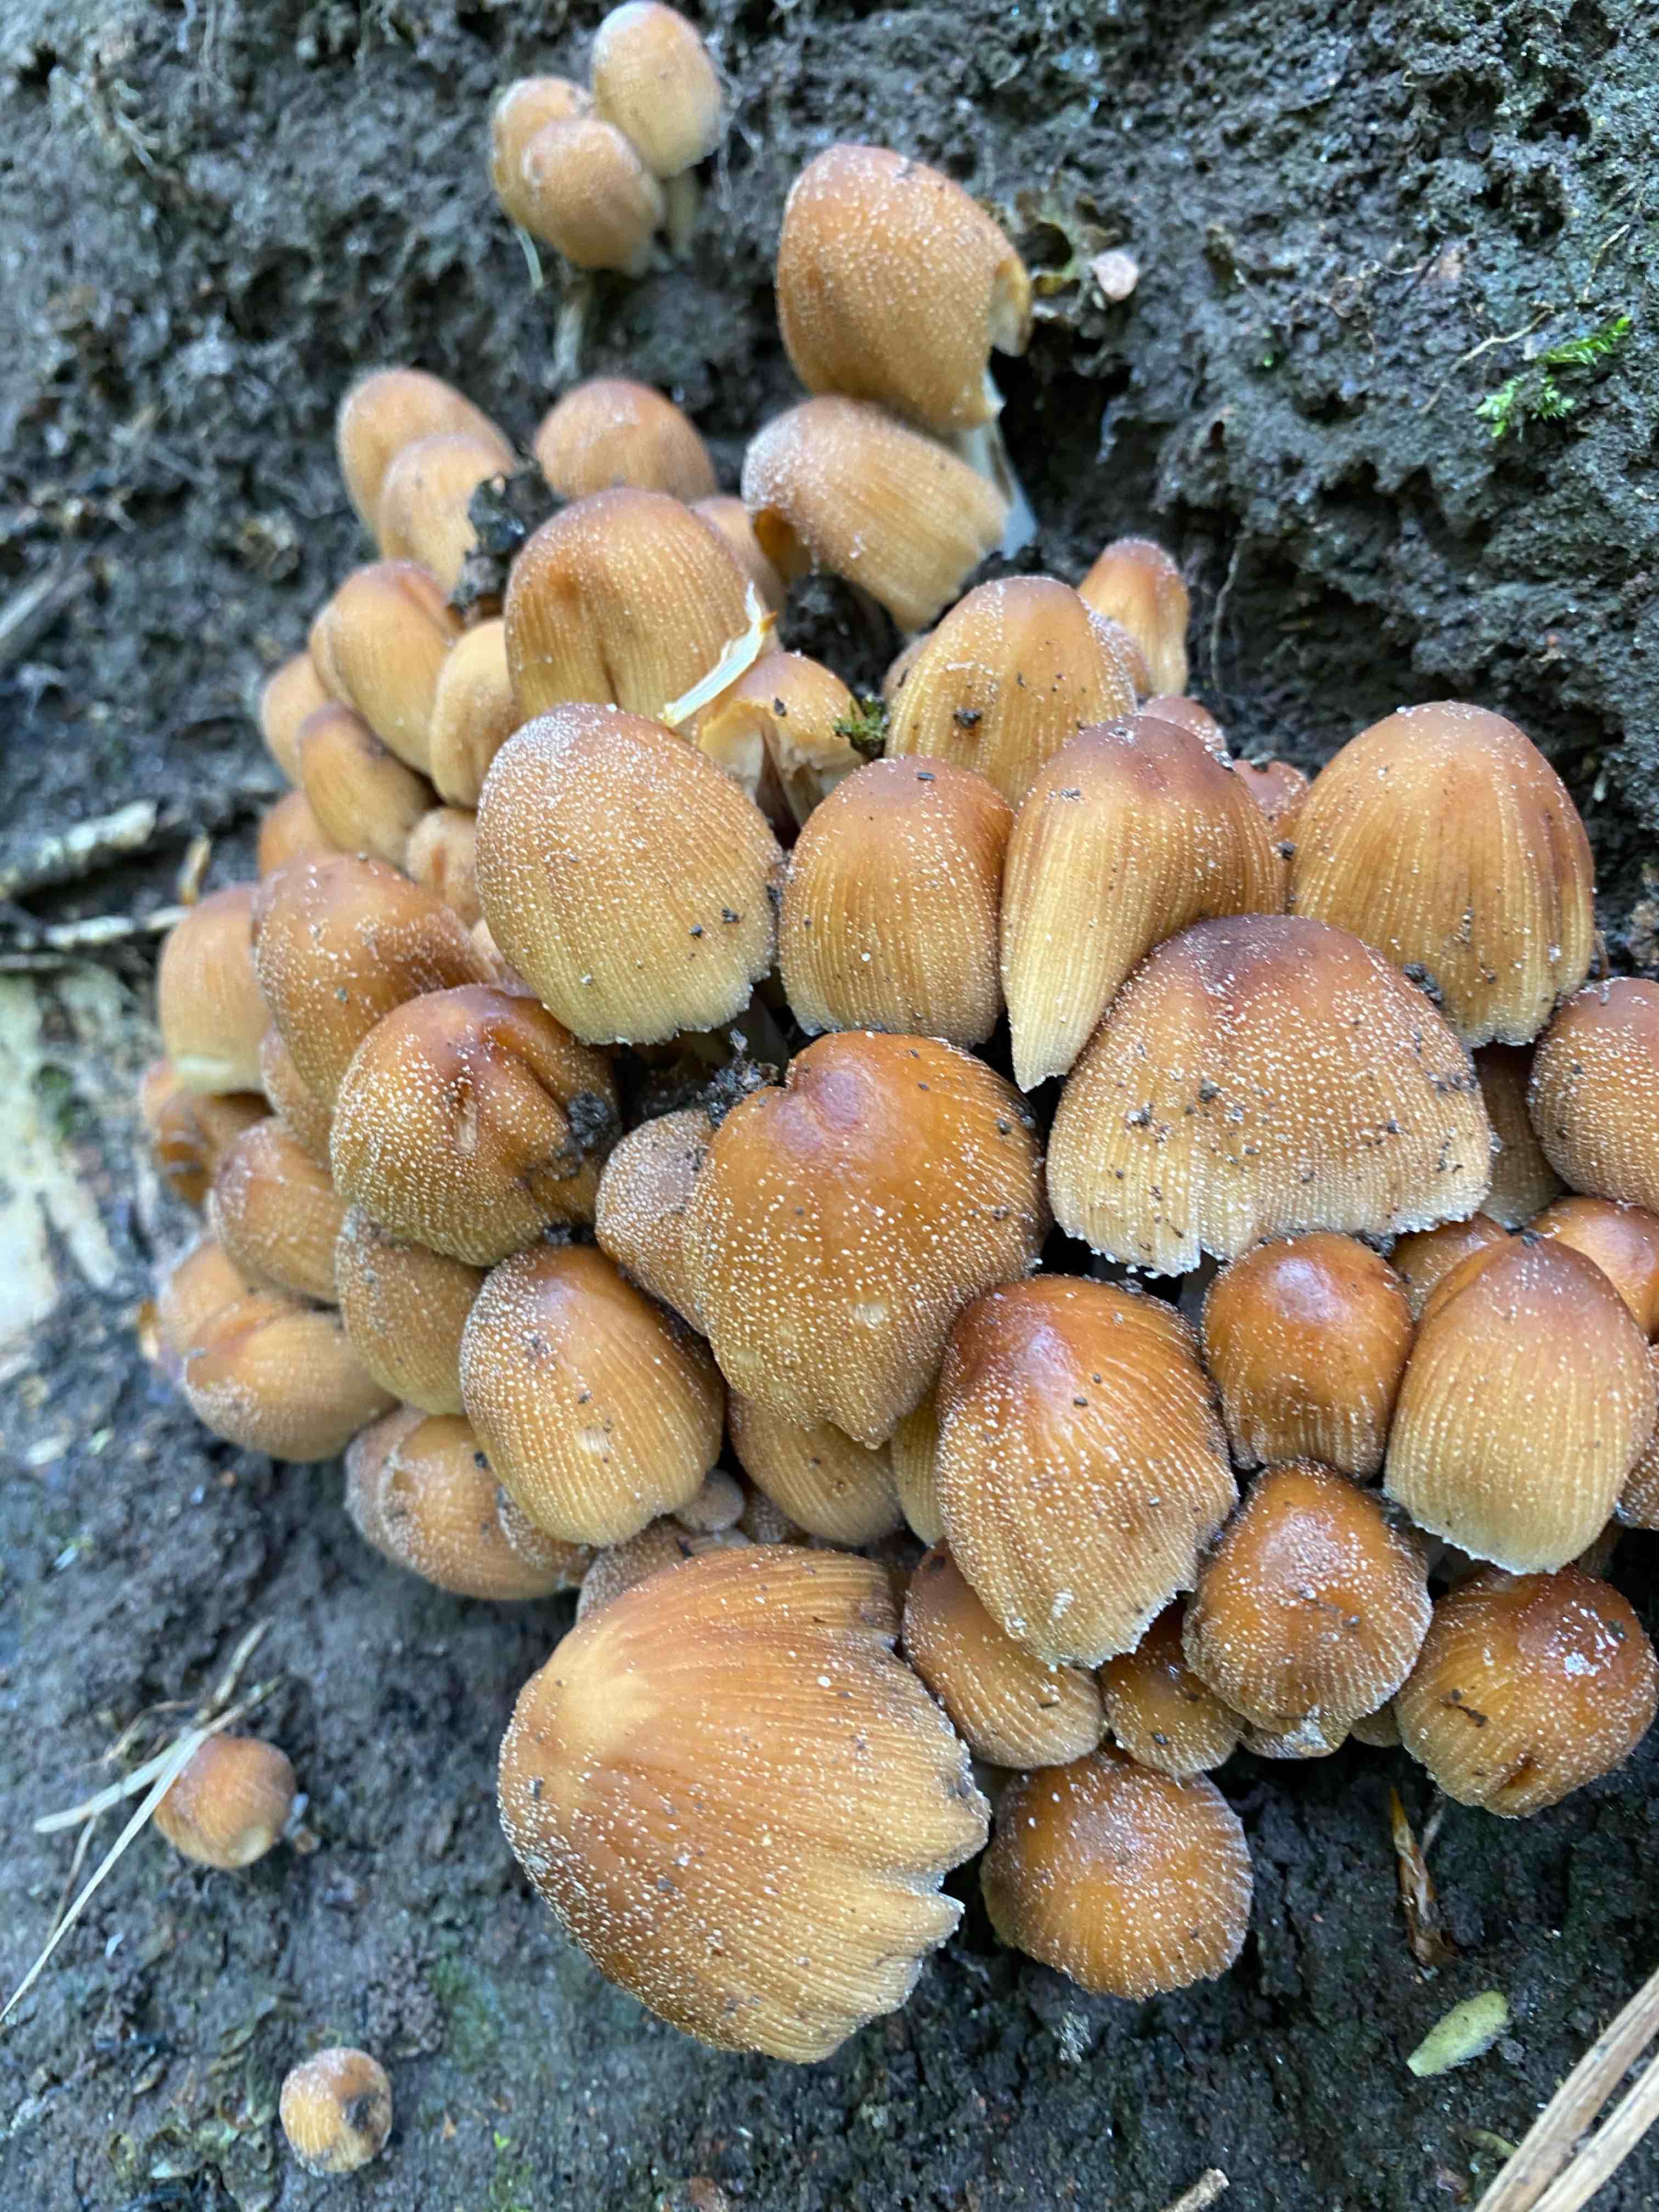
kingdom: Fungi
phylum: Basidiomycota
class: Agaricomycetes
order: Agaricales
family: Psathyrellaceae
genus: Coprinellus
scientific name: Coprinellus micaceus
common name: glimmer-blækhat
